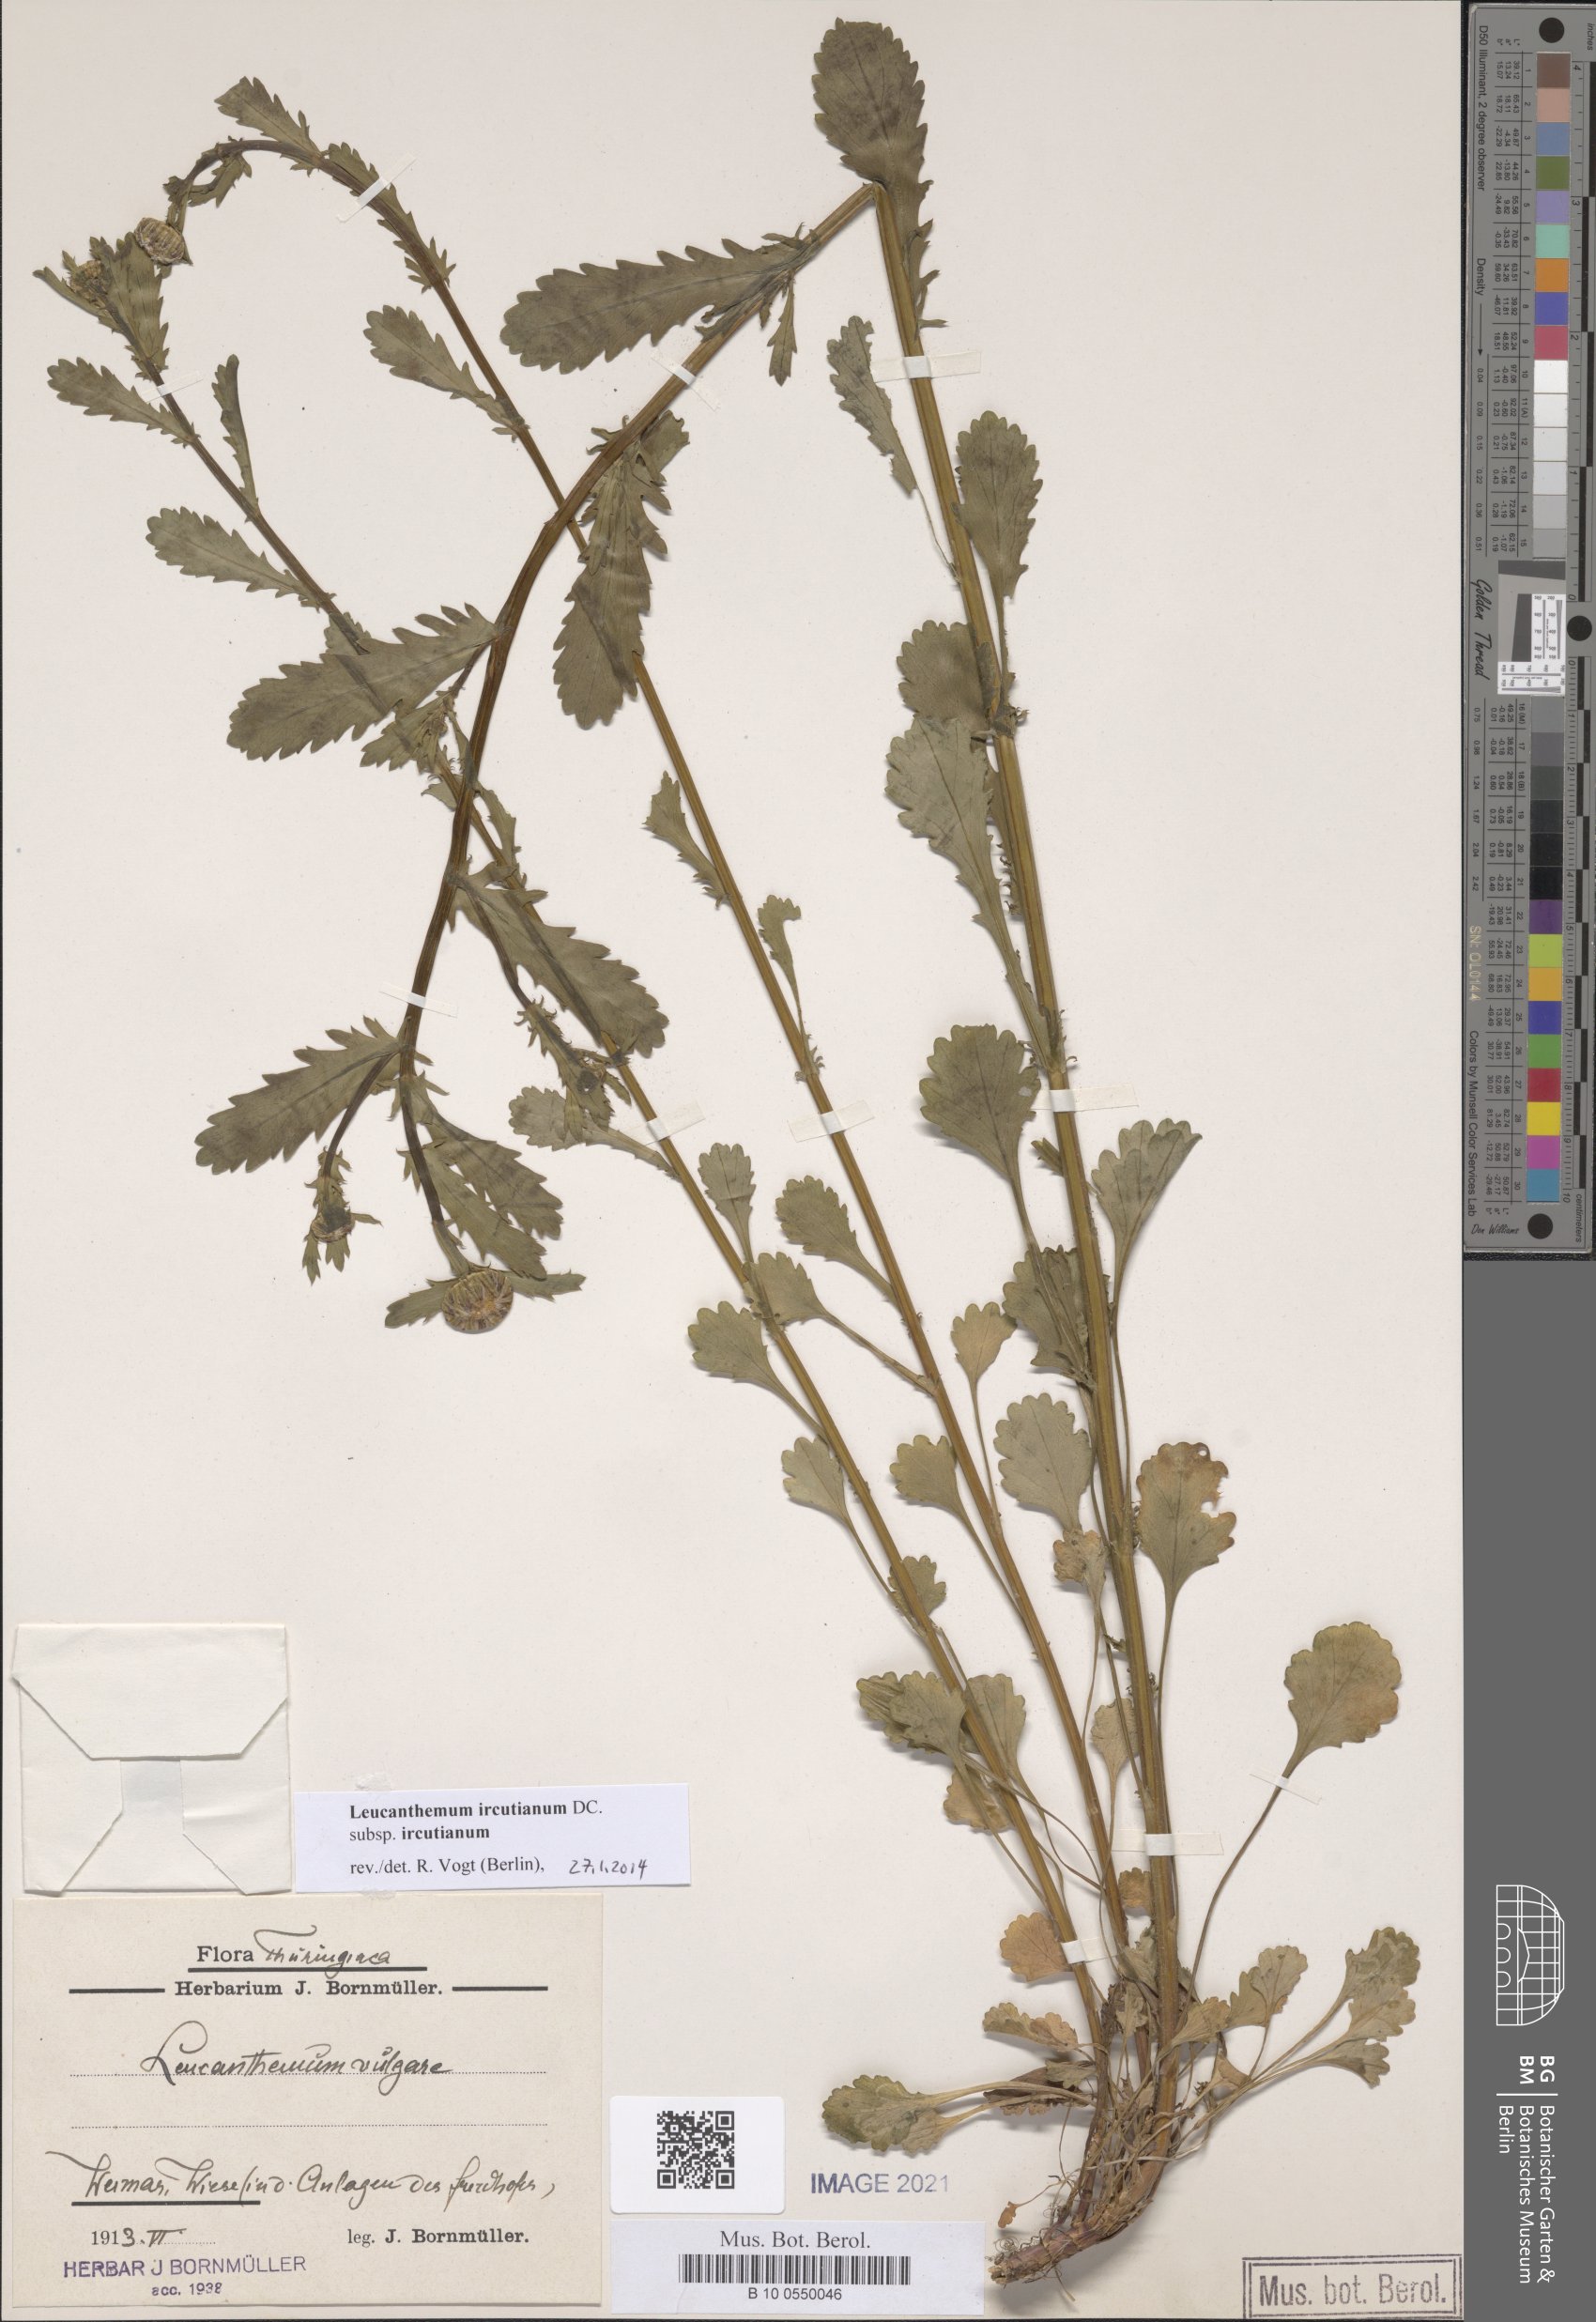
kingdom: Plantae
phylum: Tracheophyta
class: Magnoliopsida
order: Asterales
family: Asteraceae
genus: Leucanthemum
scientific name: Leucanthemum ircutianum
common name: Daisy
